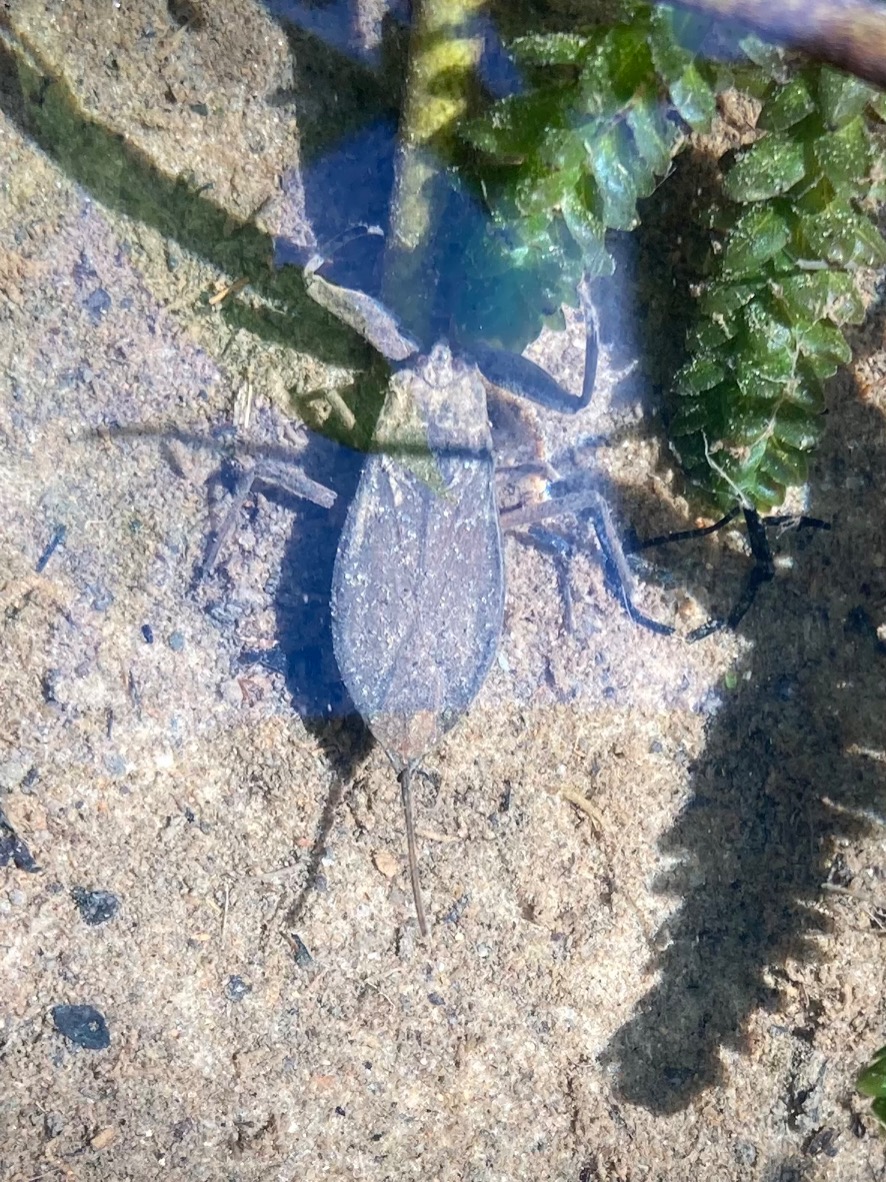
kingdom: Animalia
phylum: Arthropoda
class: Insecta
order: Hemiptera
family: Nepidae
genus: Nepa
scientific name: Nepa cinerea
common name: Skorpiontæge
